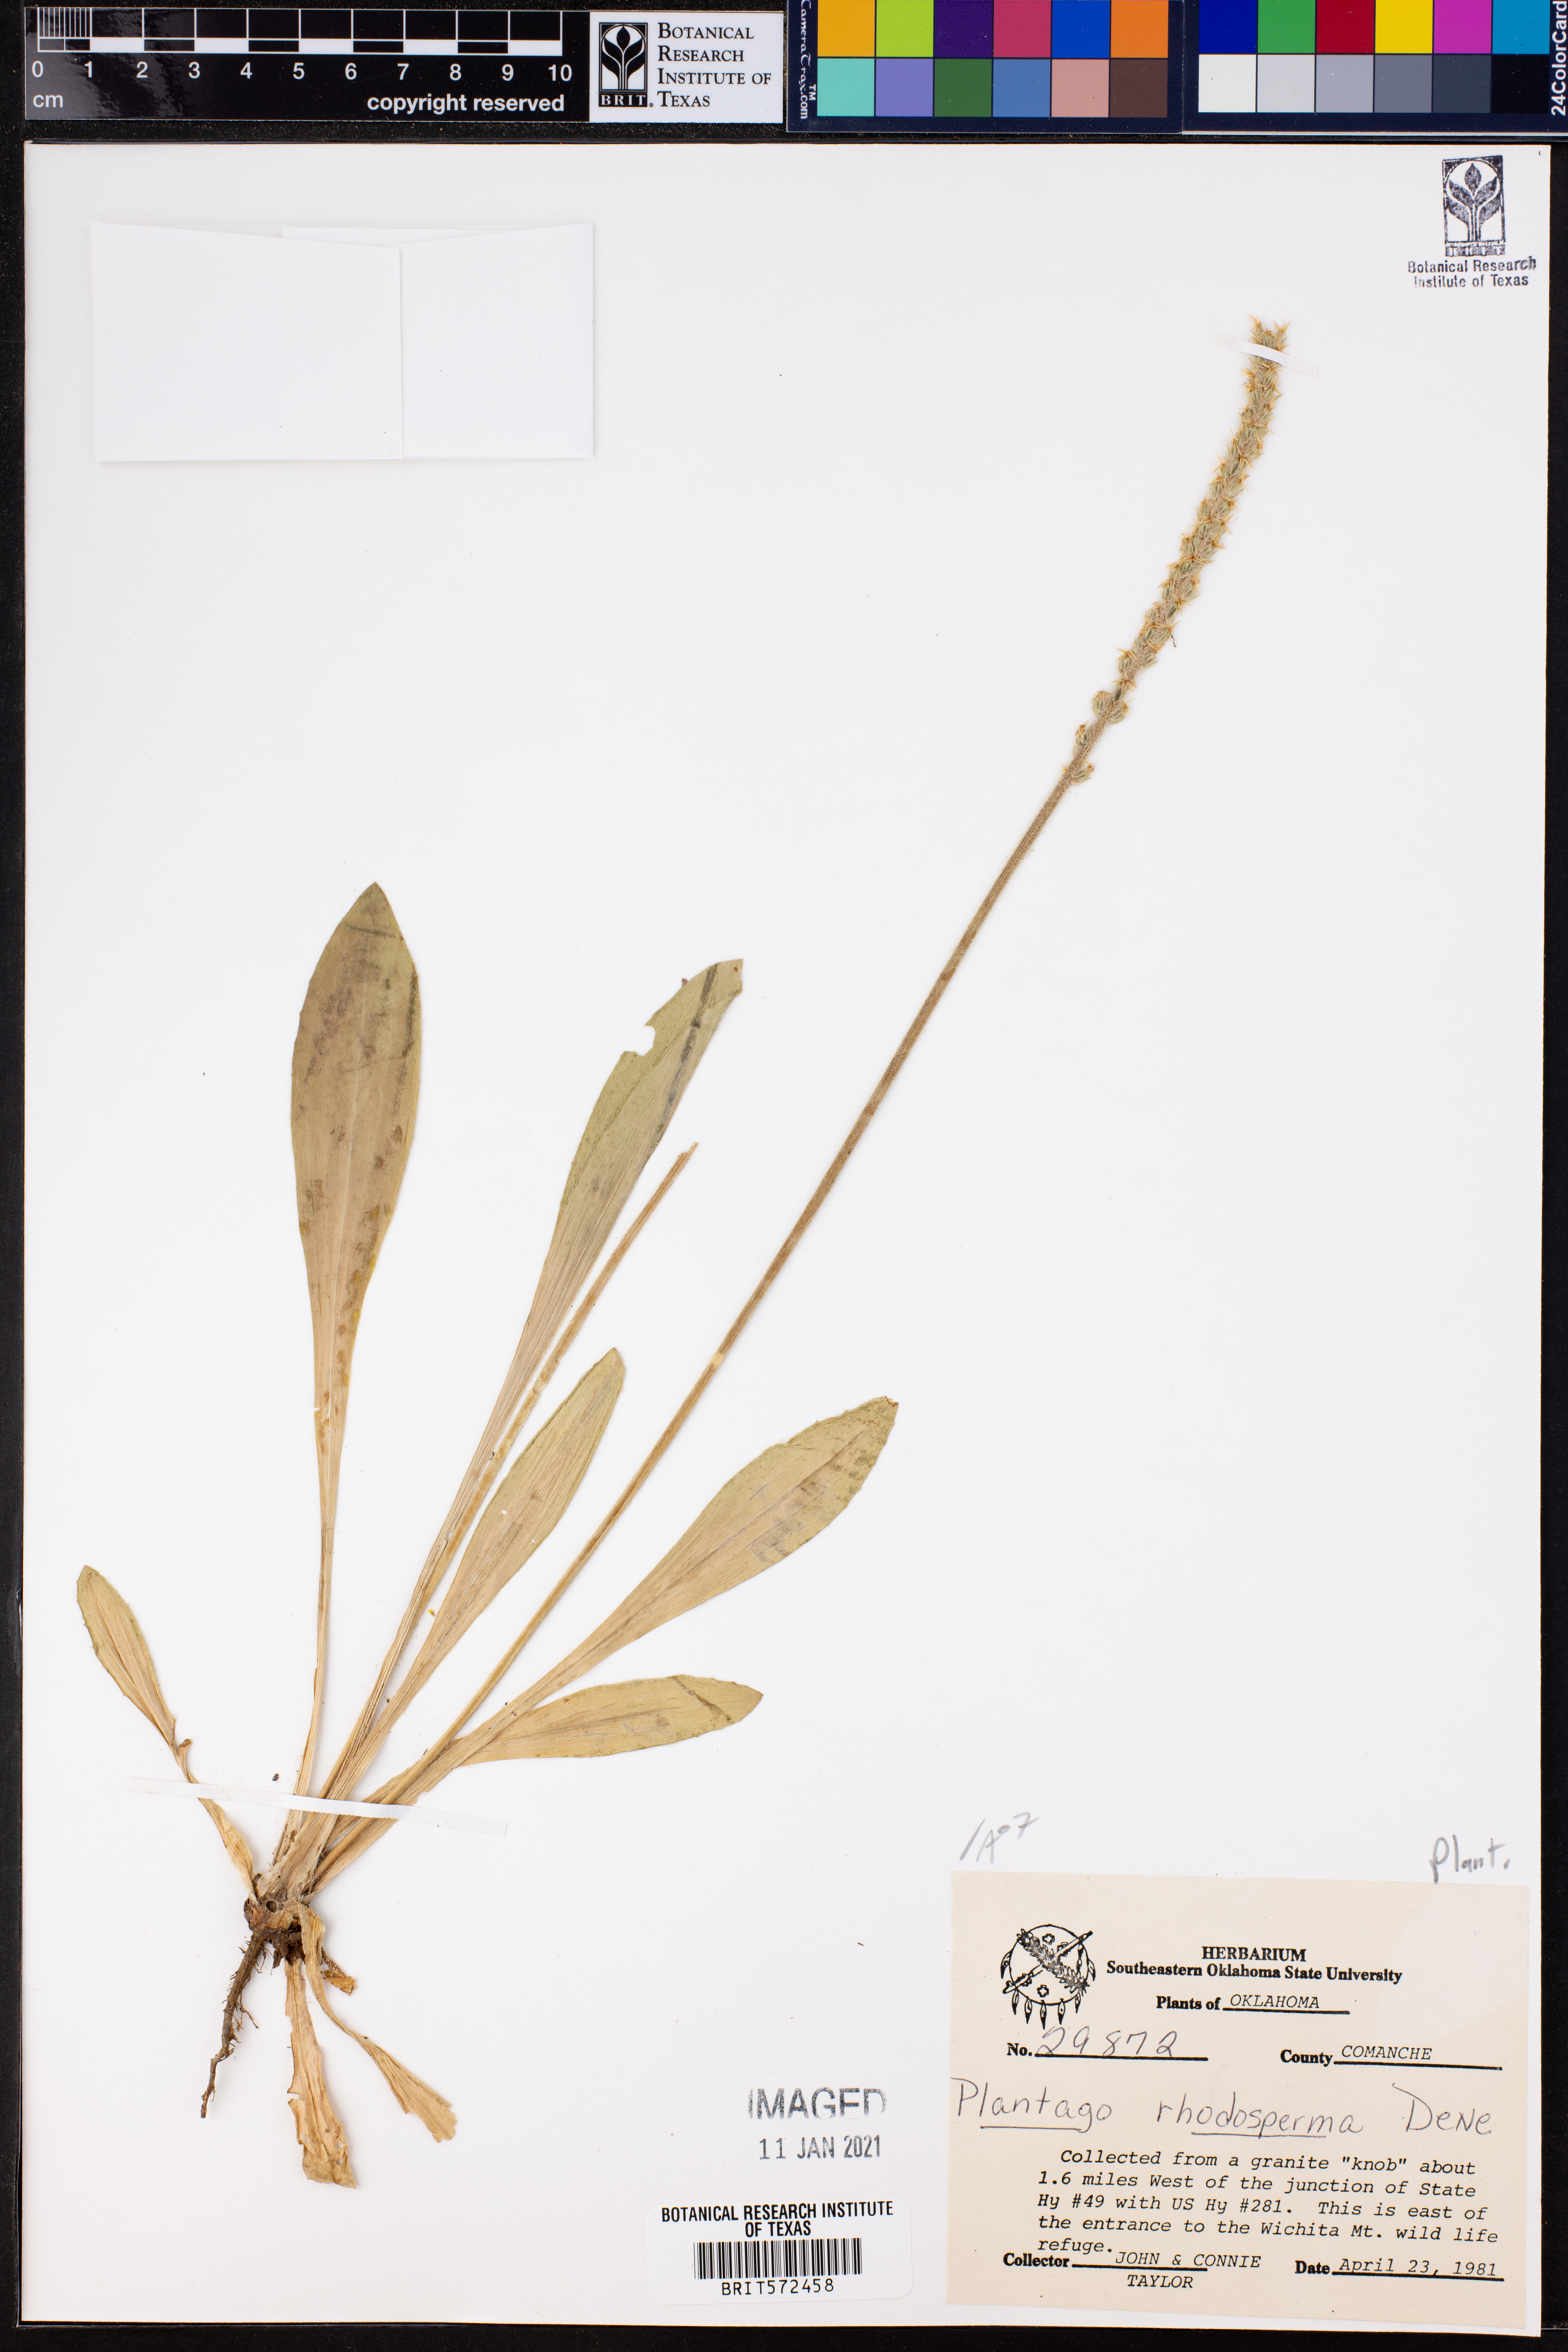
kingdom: Plantae
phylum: Tracheophyta
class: Magnoliopsida
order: Lamiales
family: Plantaginaceae
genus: Plantago
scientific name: Plantago rhodosperma
